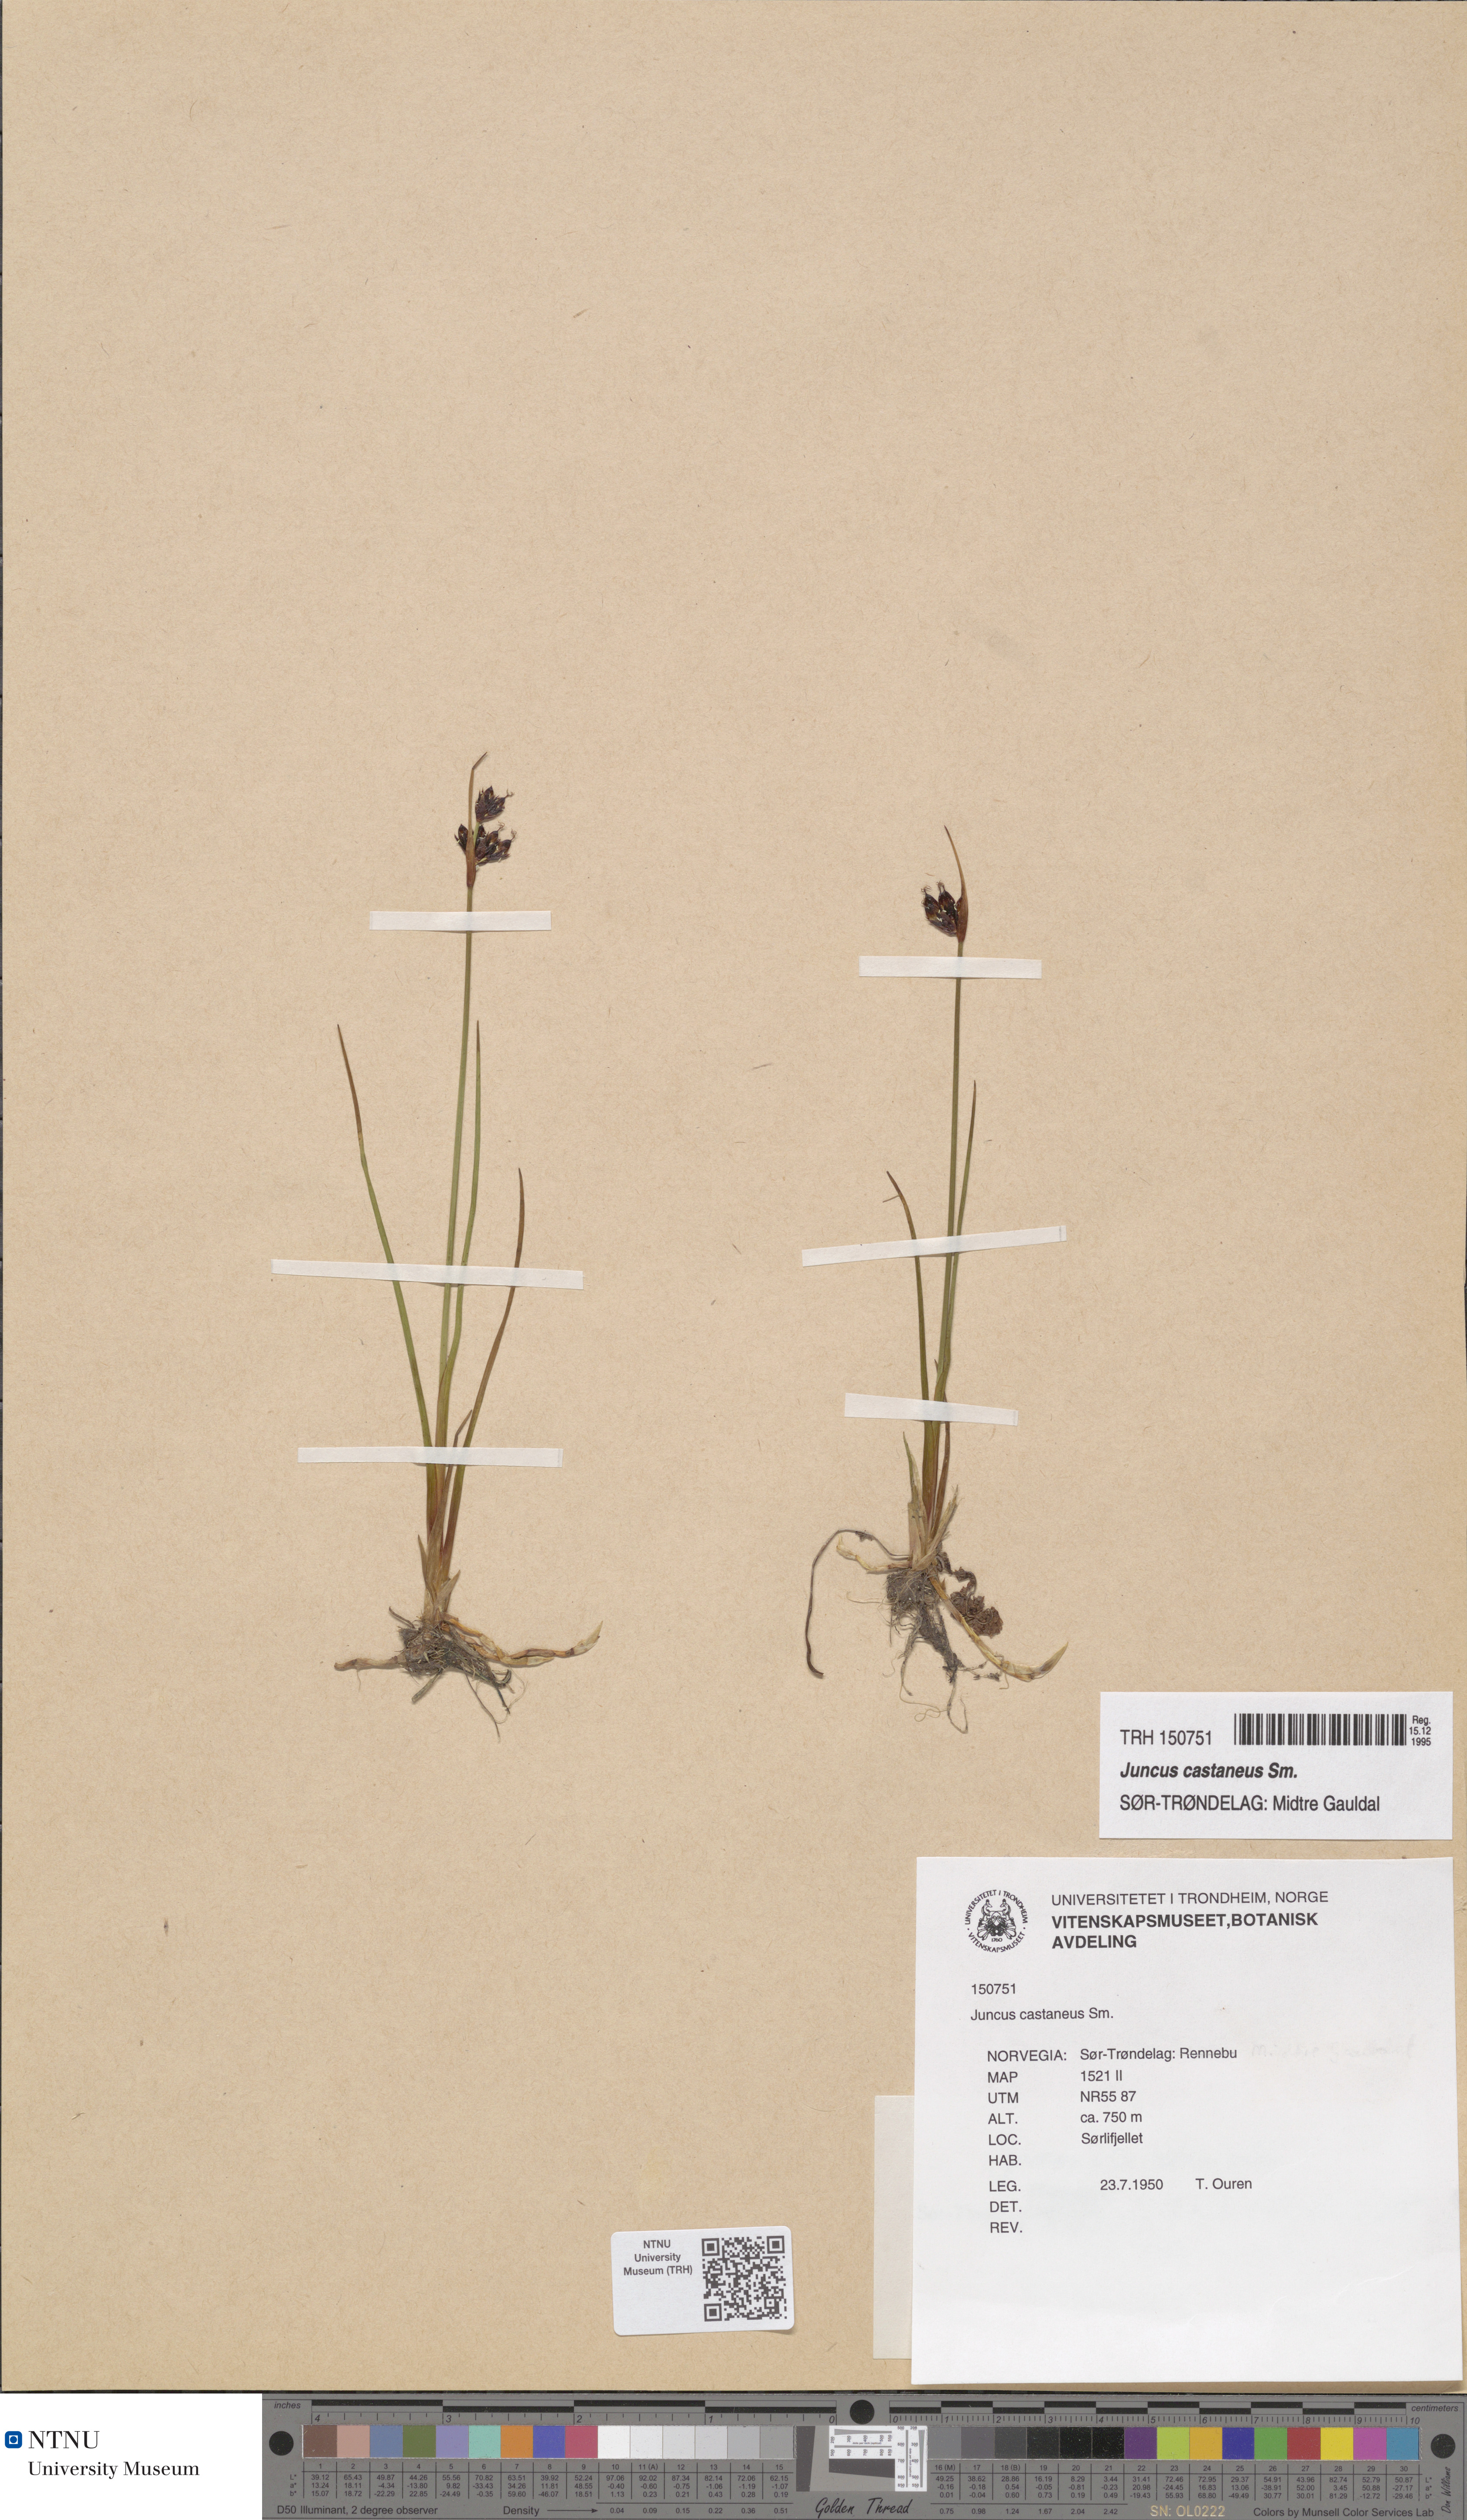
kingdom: Plantae
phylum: Tracheophyta
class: Liliopsida
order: Poales
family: Juncaceae
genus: Juncus
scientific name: Juncus castaneus
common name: Chestnut rush
